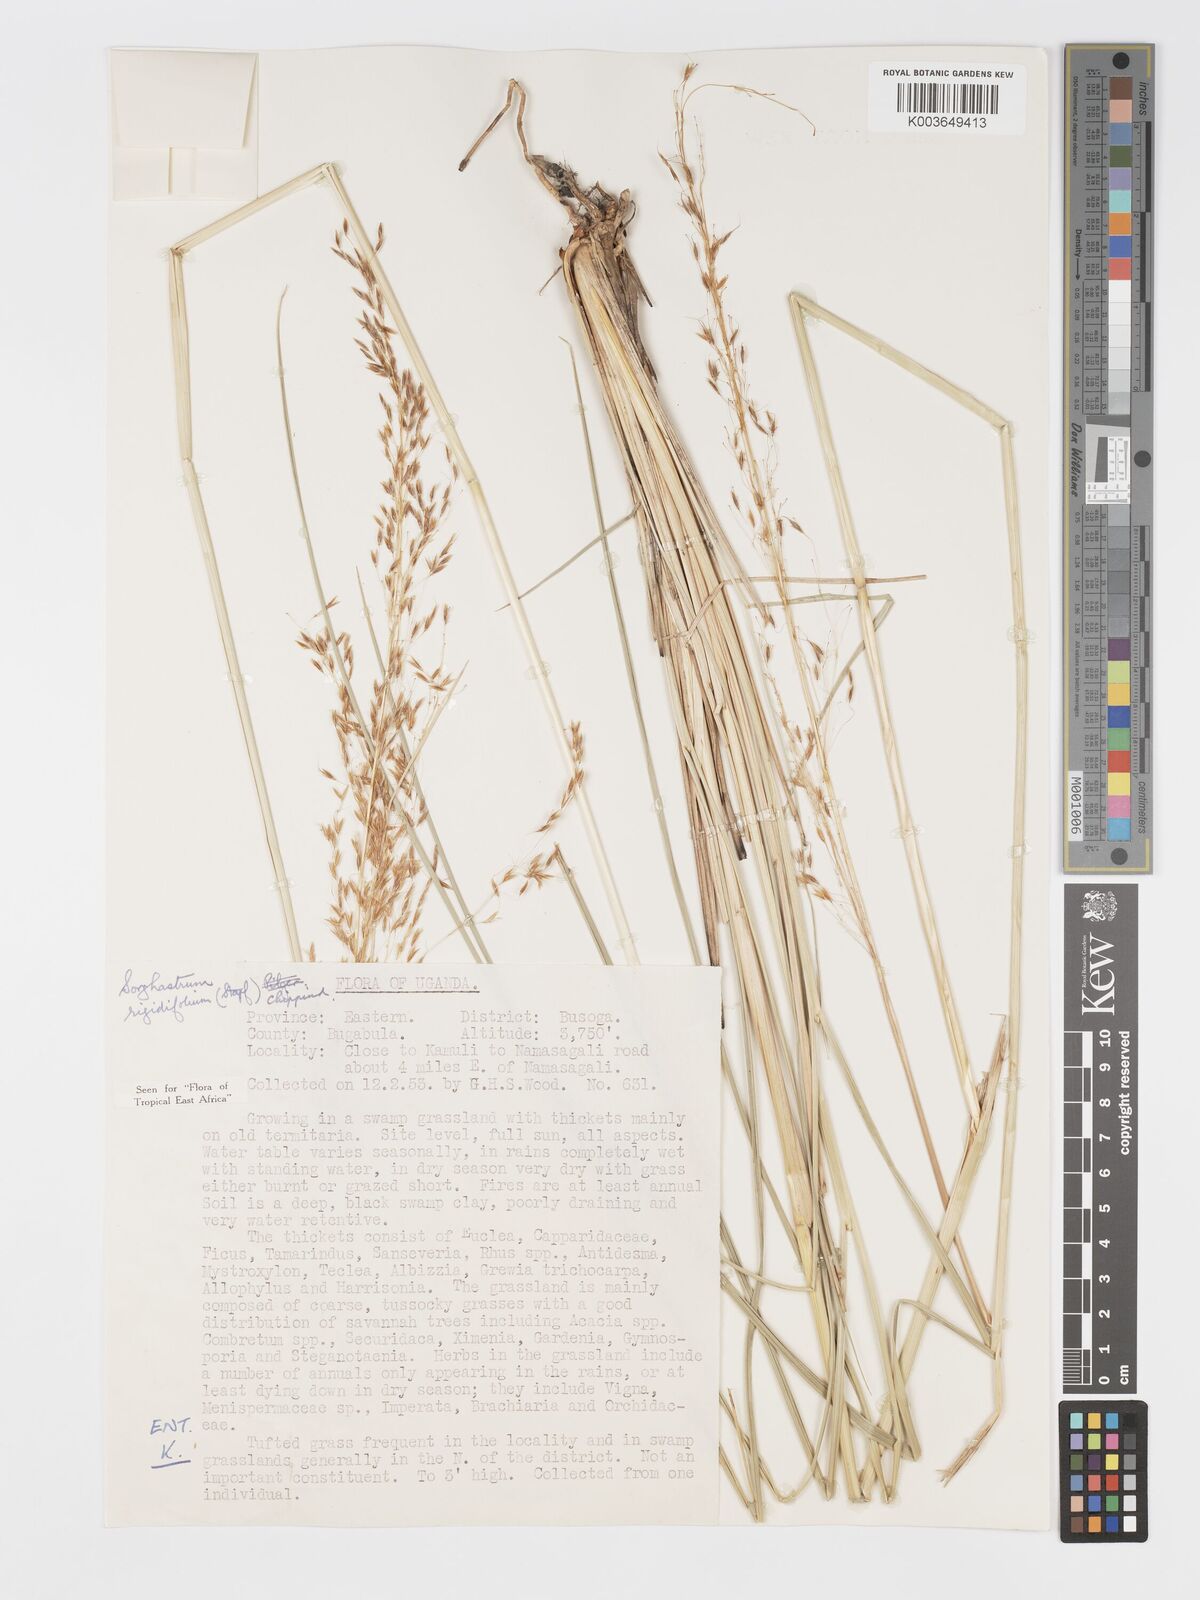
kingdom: Plantae
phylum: Tracheophyta
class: Liliopsida
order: Poales
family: Poaceae
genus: Sorghastrum
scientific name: Sorghastrum stipoides
